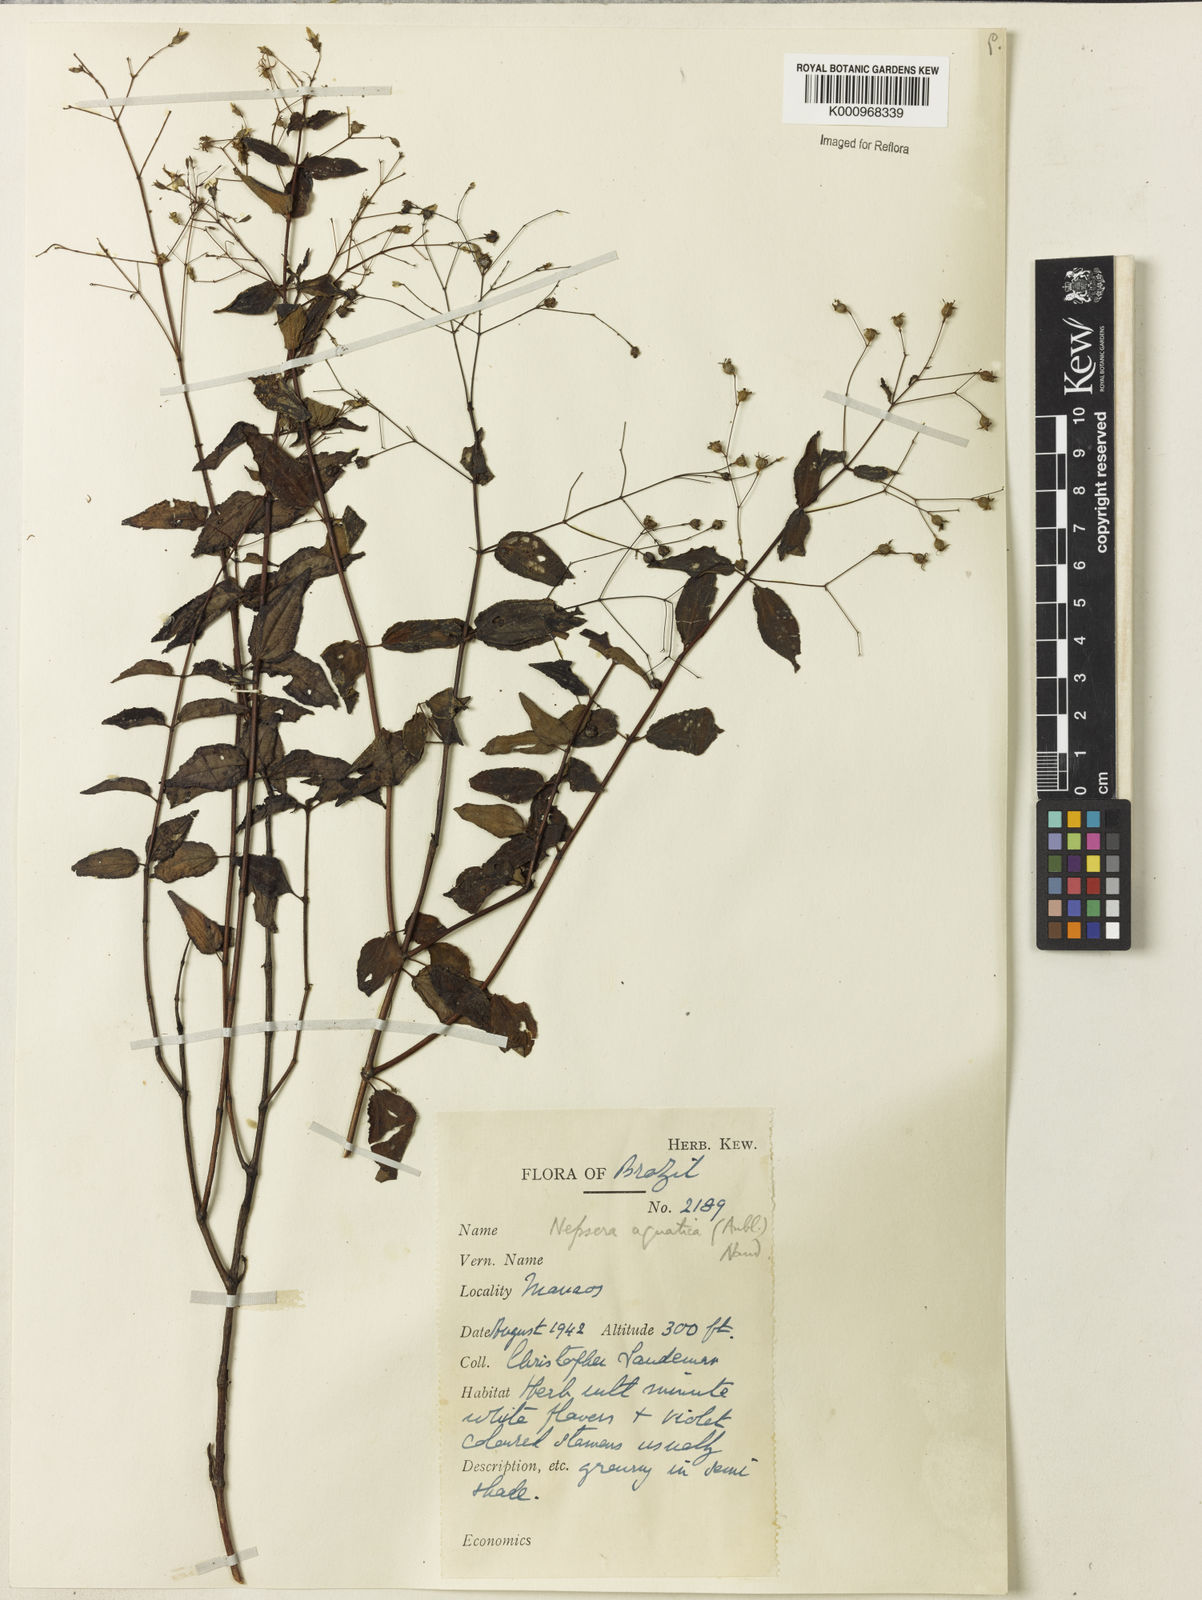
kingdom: Plantae
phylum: Tracheophyta
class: Magnoliopsida
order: Myrtales
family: Melastomataceae
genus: Nepsera
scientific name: Nepsera aquatica
